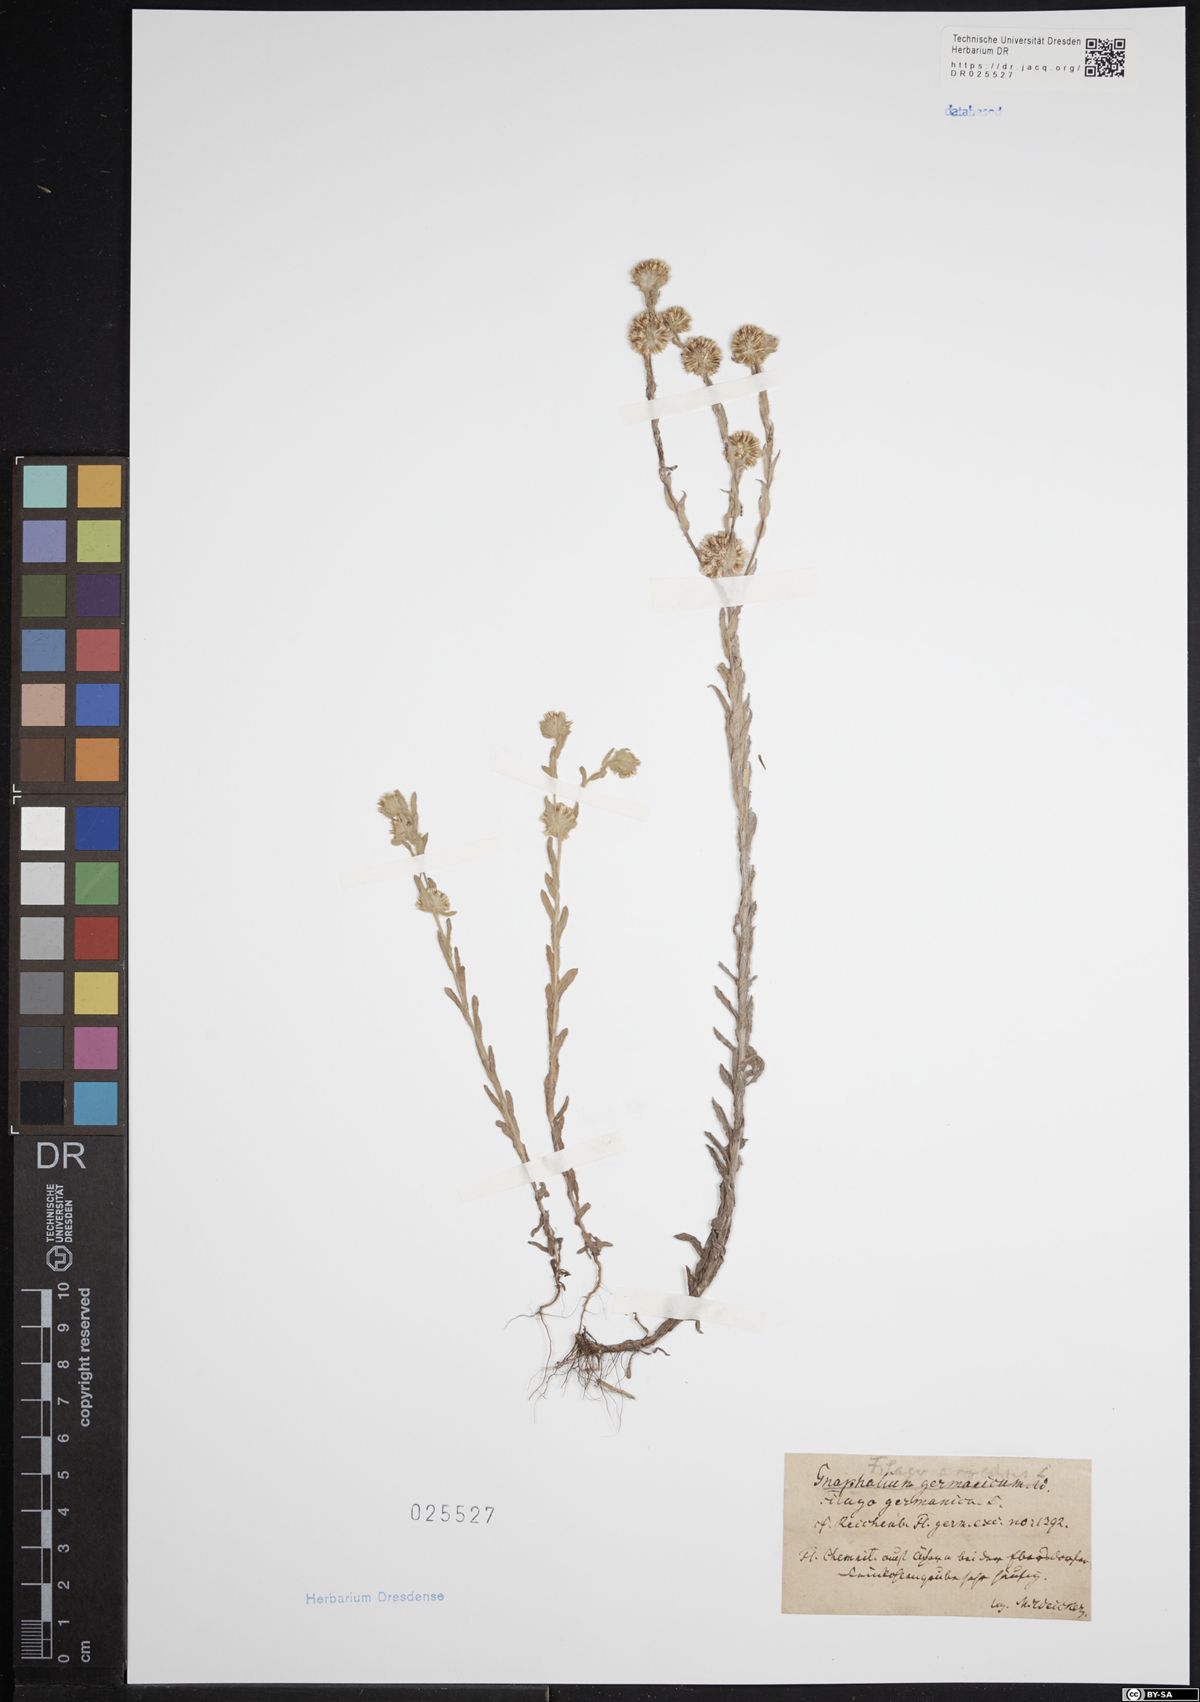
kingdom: Plantae
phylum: Tracheophyta
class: Magnoliopsida
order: Asterales
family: Asteraceae
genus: Filago
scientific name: Filago arvensis
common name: Field cudweed
